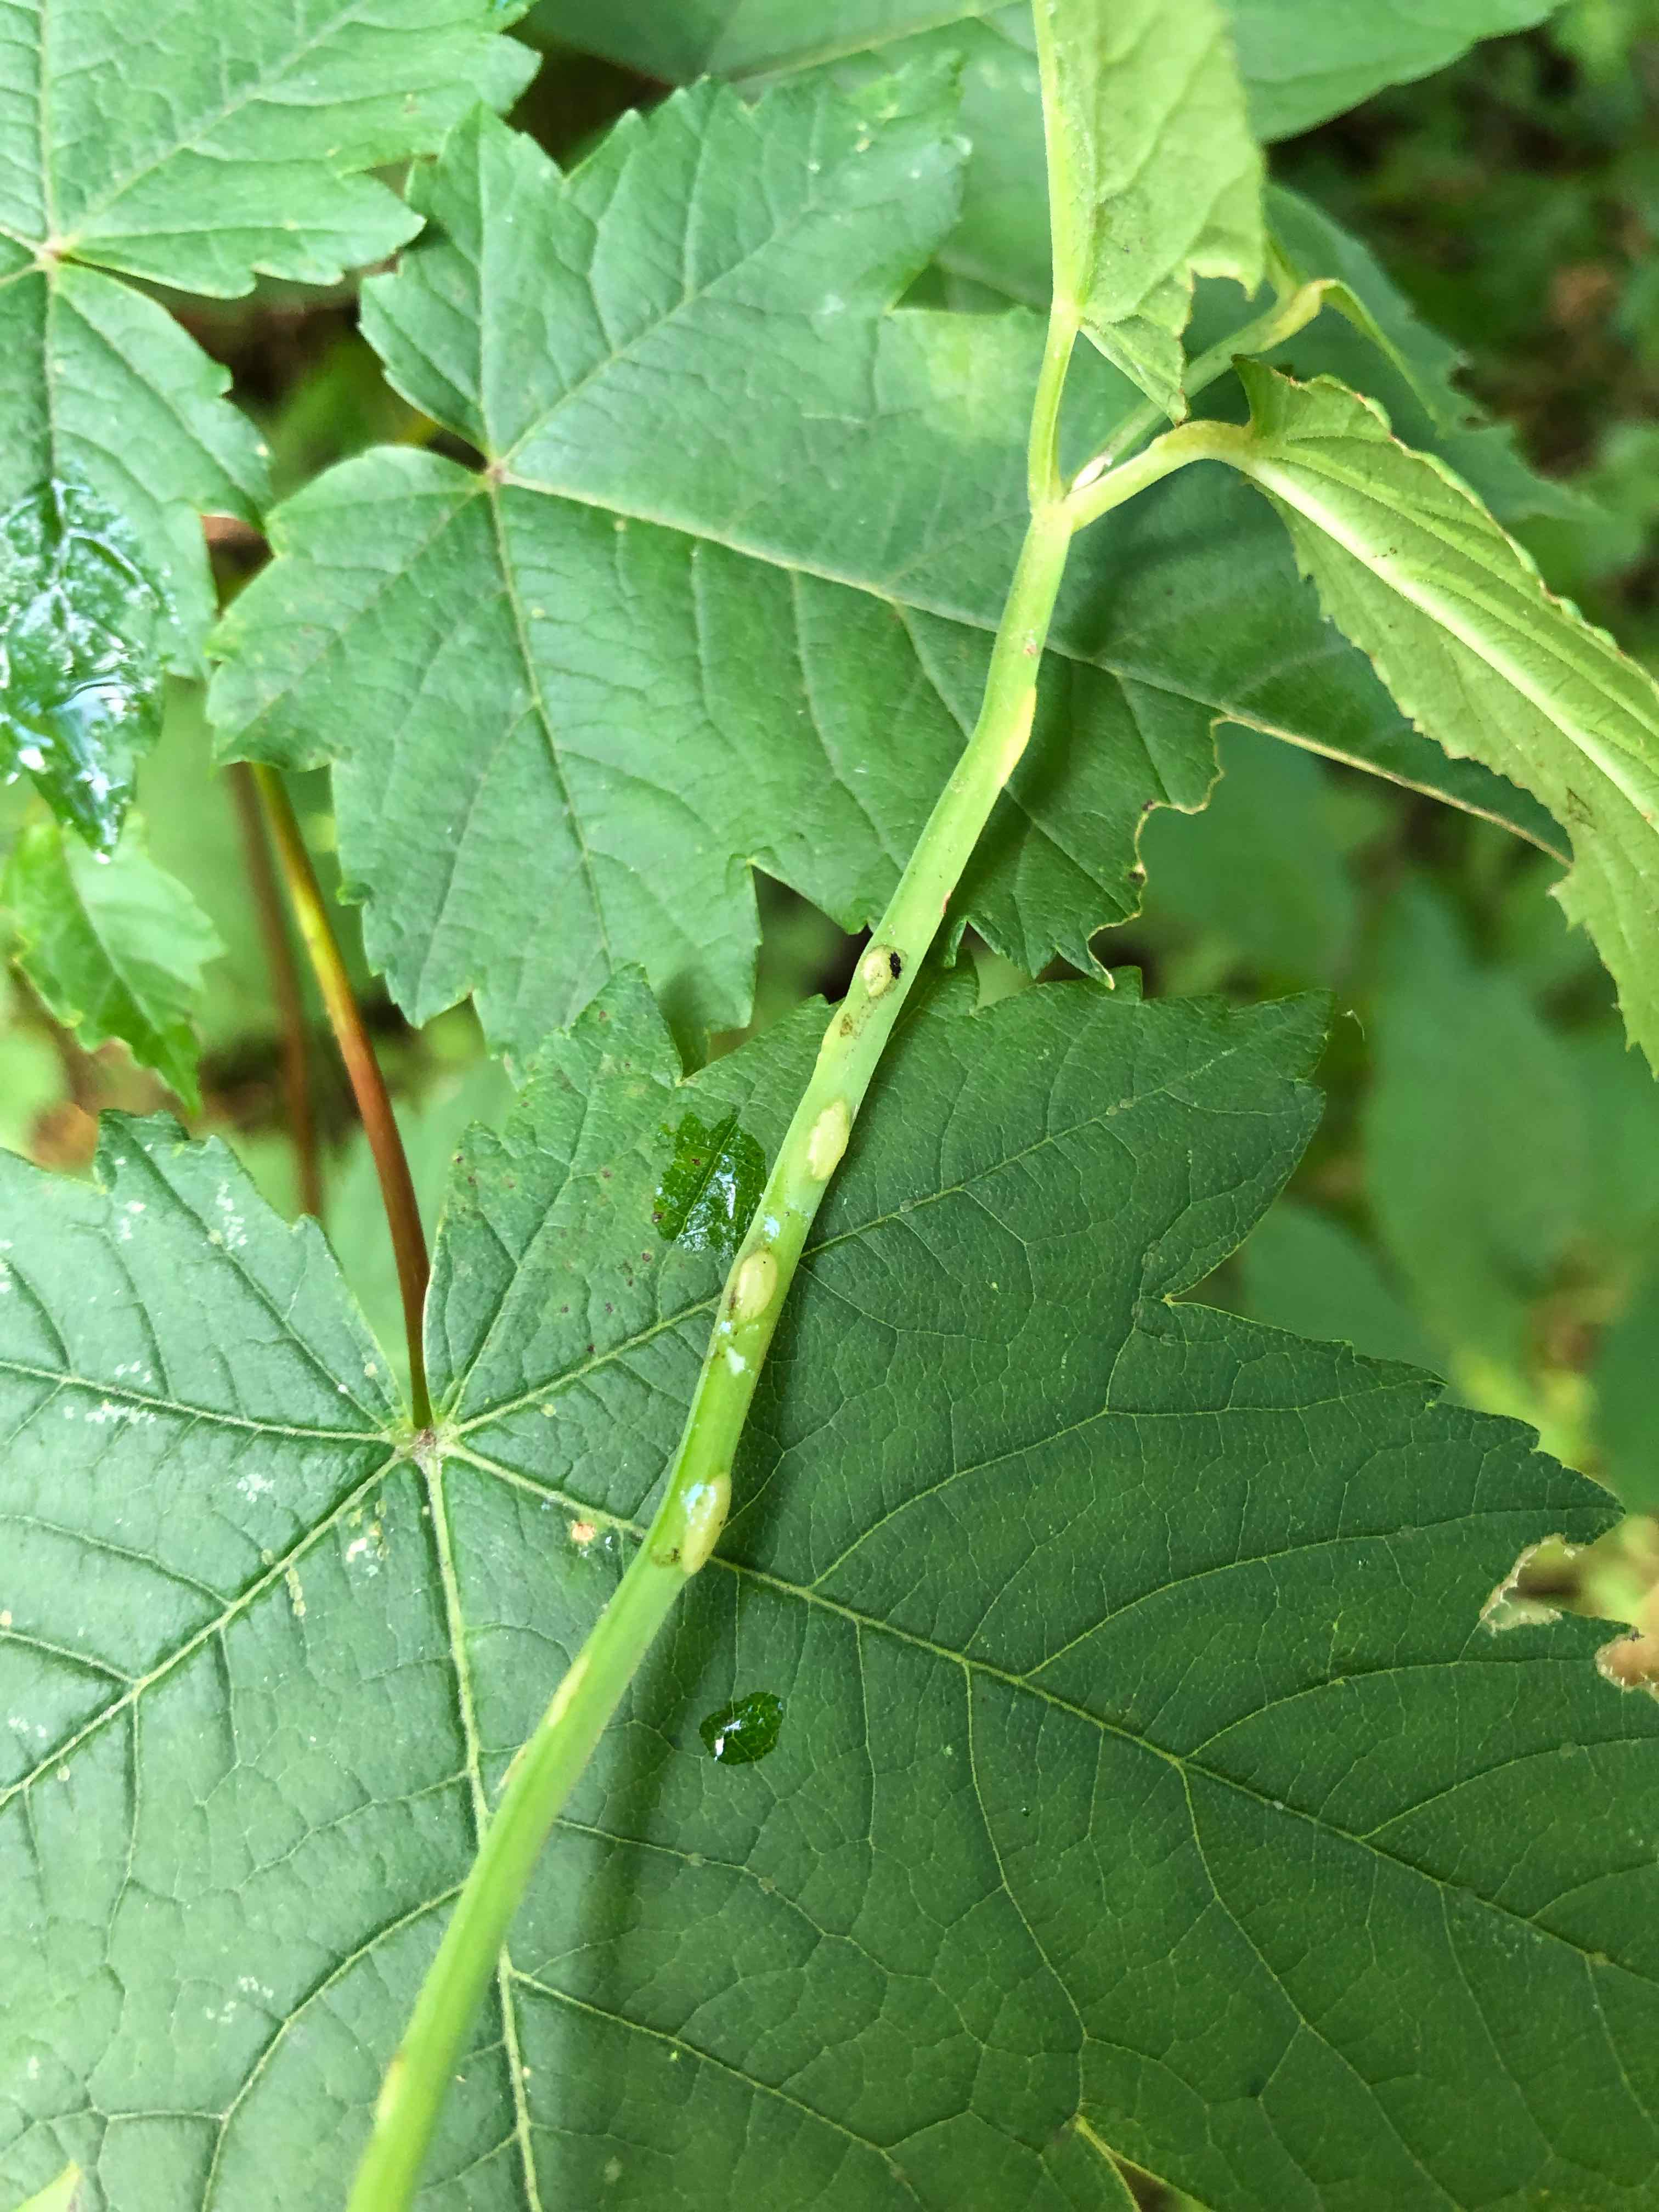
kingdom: Fungi
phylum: Ascomycota
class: Taphrinomycetes
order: Taphrinales
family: Taphrinaceae
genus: Protomyces
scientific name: Protomyces macrosporus
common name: skvalderkål-vablesæk
